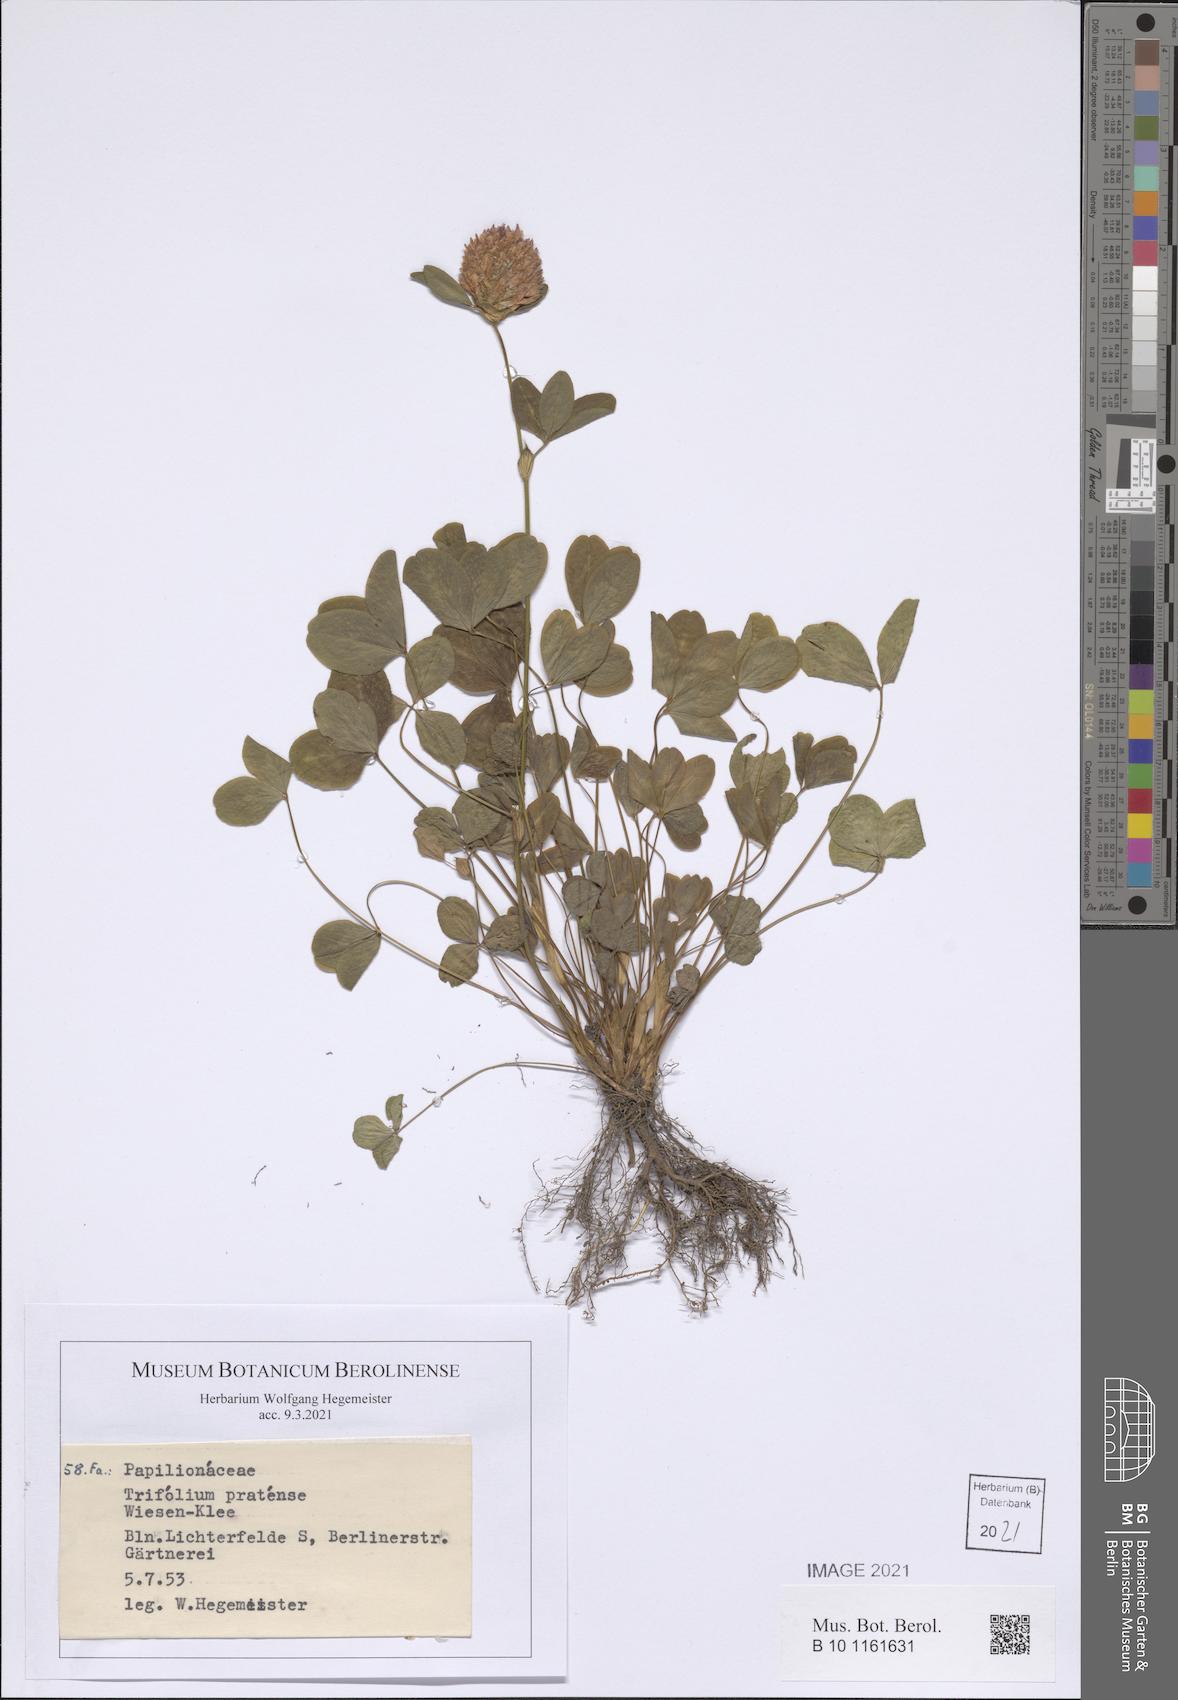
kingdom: Plantae
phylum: Tracheophyta
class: Magnoliopsida
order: Fabales
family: Fabaceae
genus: Trifolium
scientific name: Trifolium pratense
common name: Red clover
